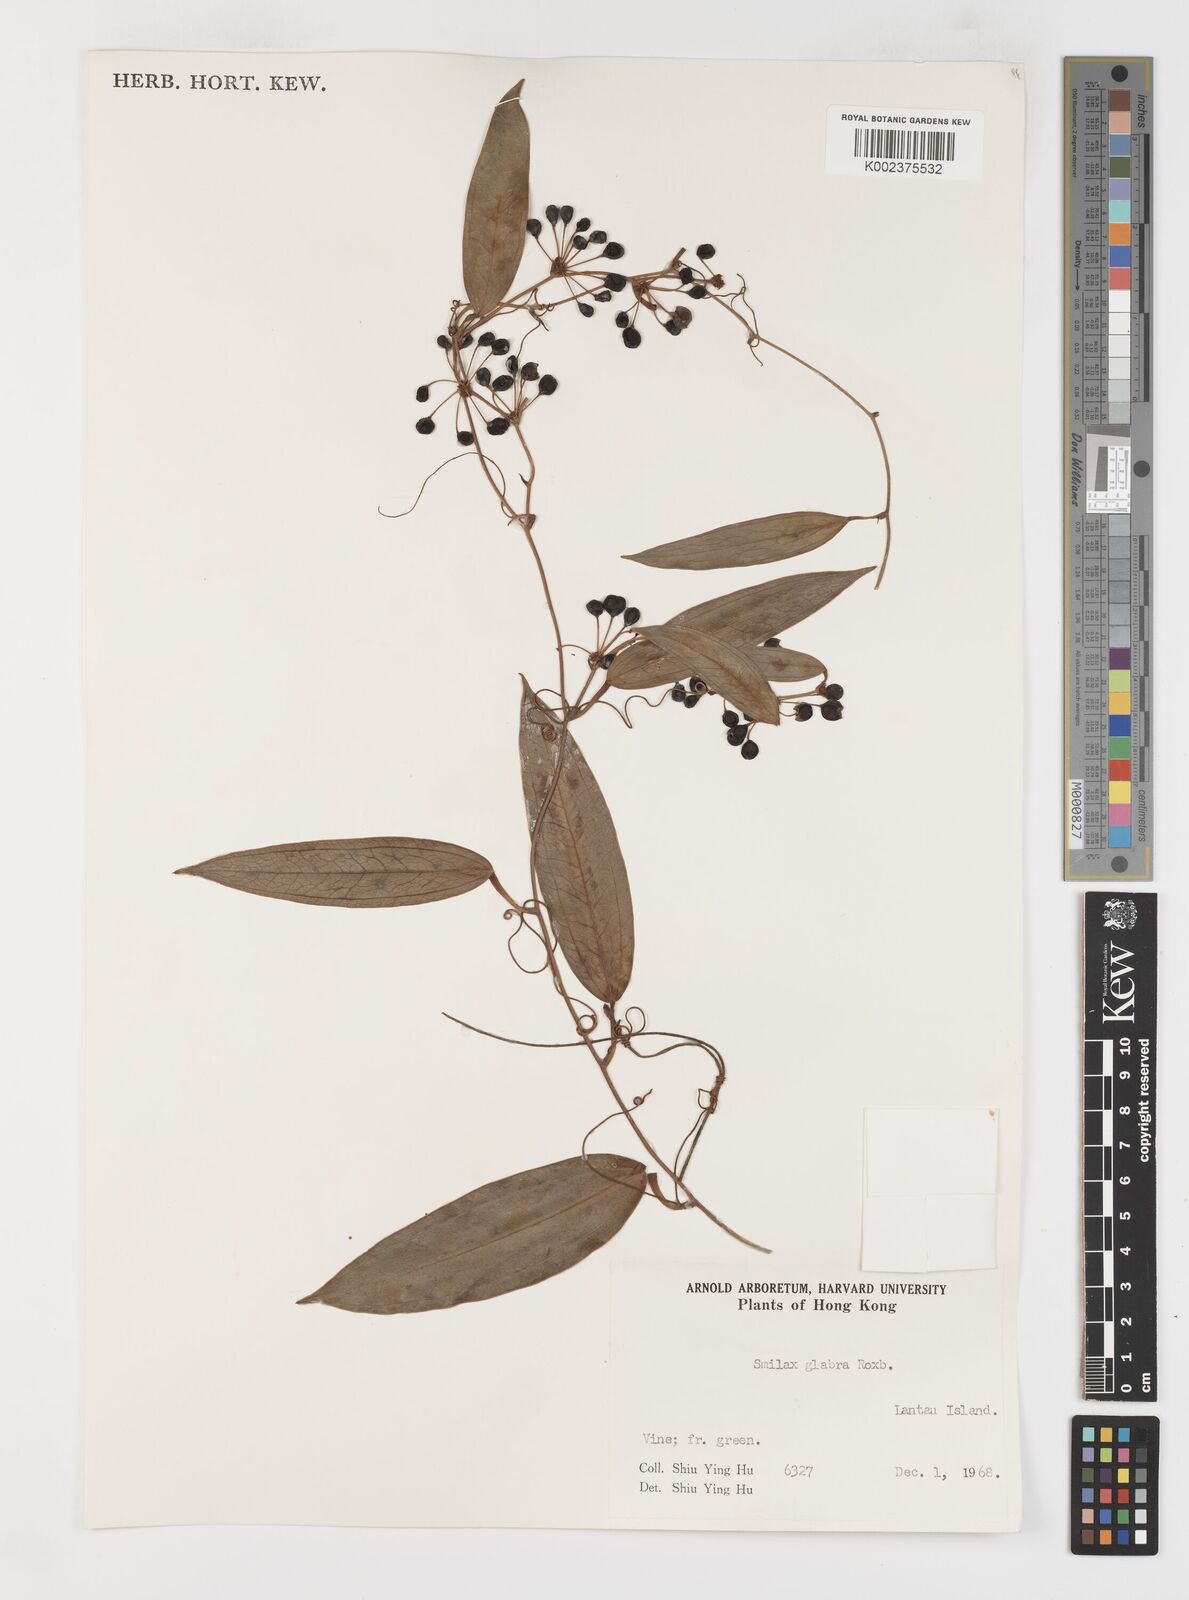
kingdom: Plantae
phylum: Tracheophyta
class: Liliopsida
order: Liliales
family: Smilacaceae
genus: Smilax
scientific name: Smilax laevis
